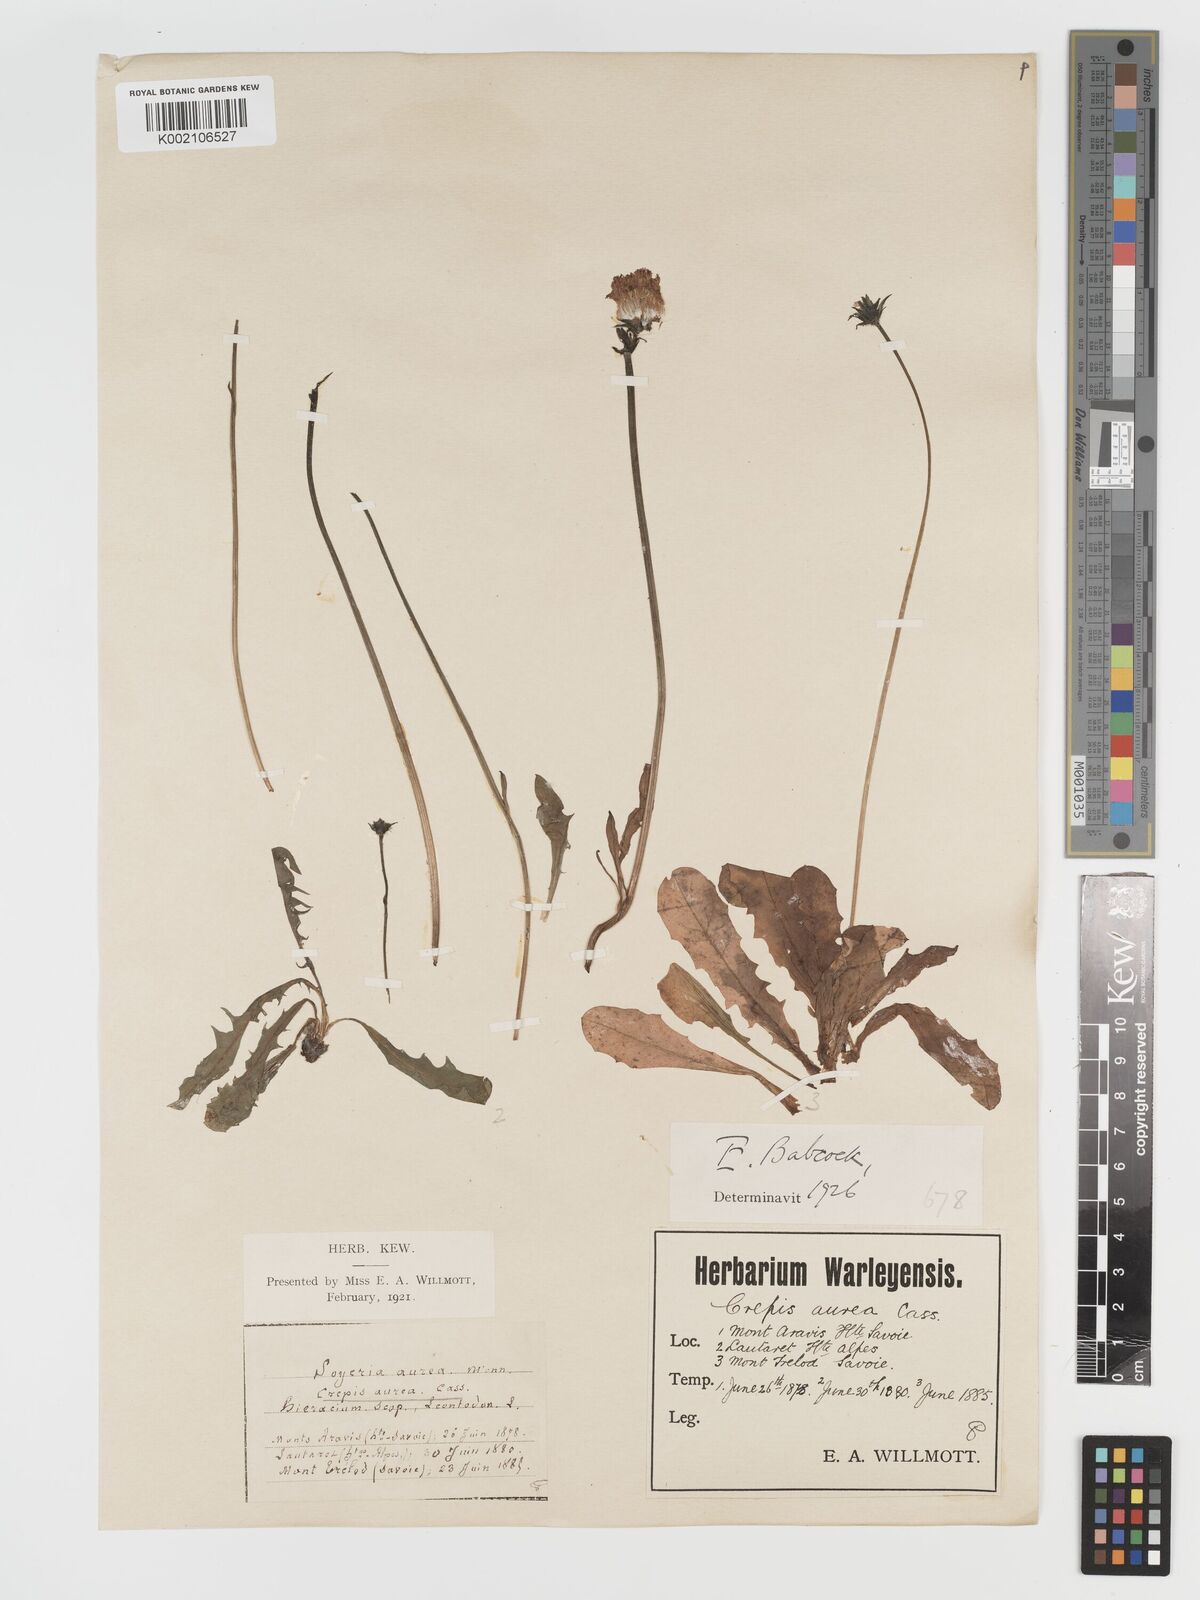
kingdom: Plantae
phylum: Tracheophyta
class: Magnoliopsida
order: Asterales
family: Asteraceae
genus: Crepis
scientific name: Crepis aurea
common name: Golden hawk's-beard
